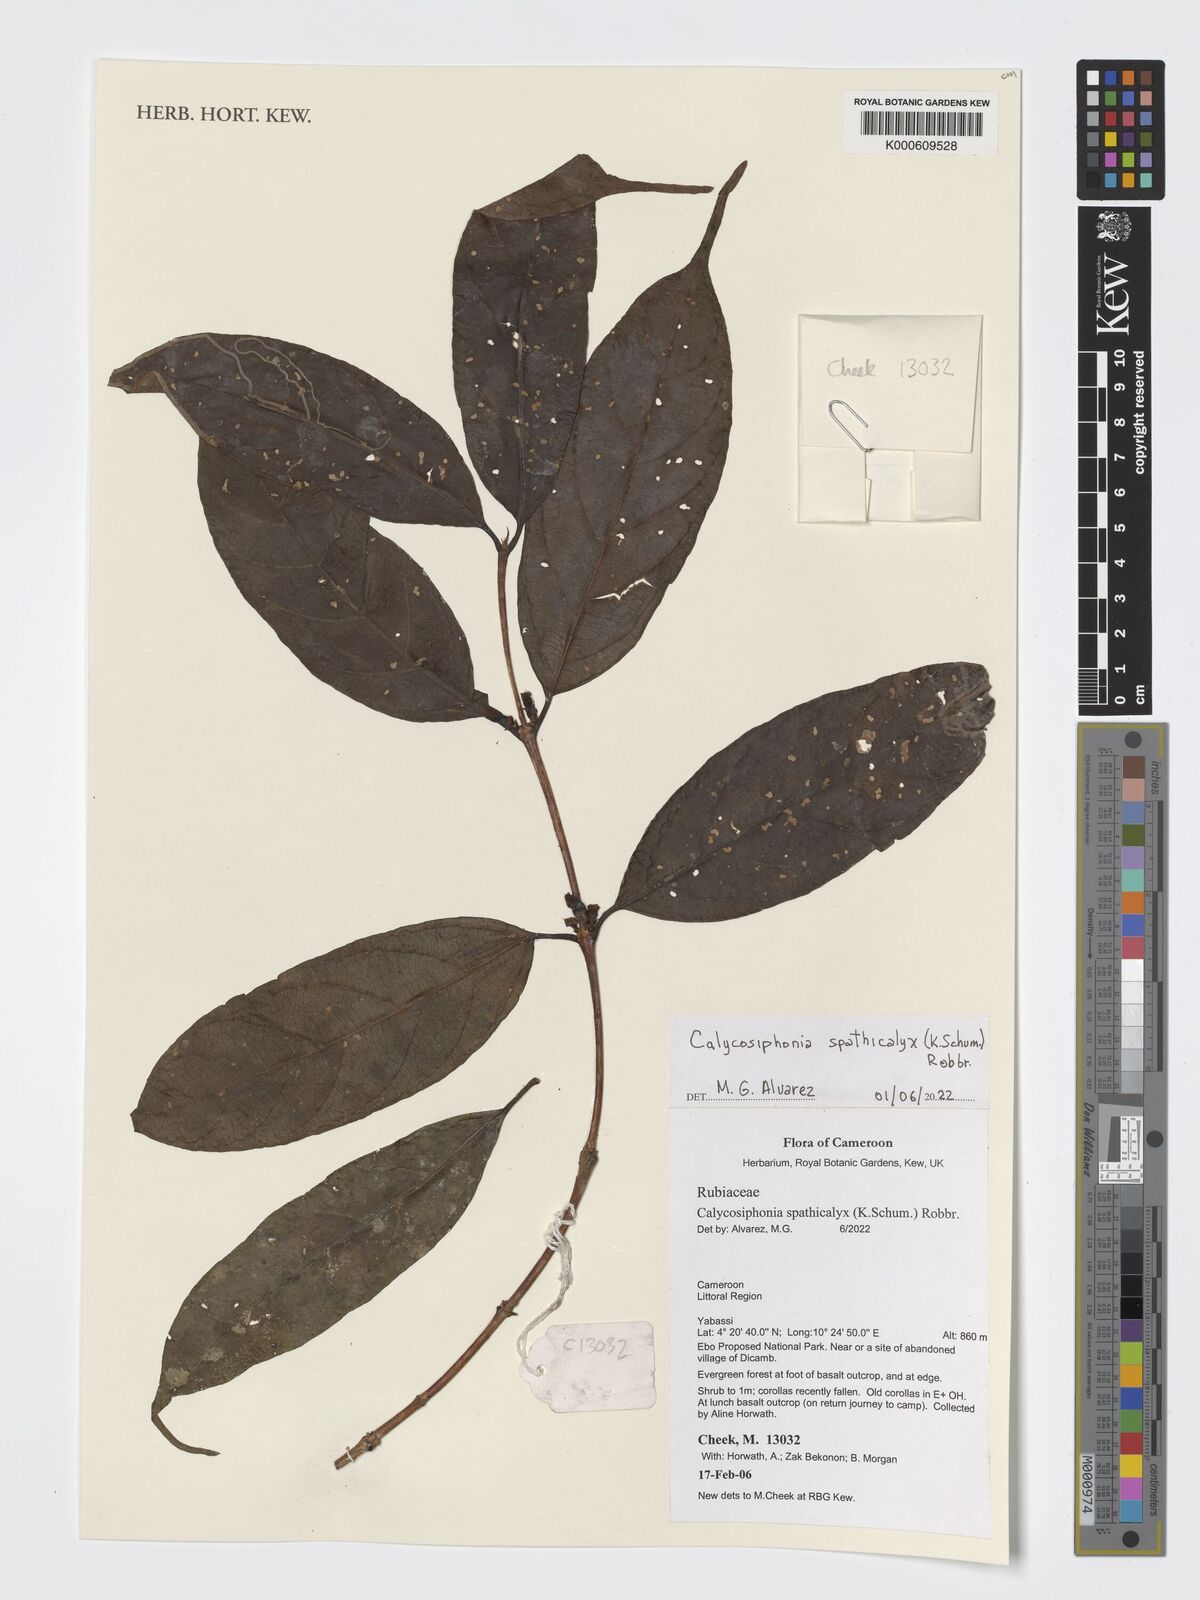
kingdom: Plantae
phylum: Tracheophyta
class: Magnoliopsida
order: Gentianales
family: Rubiaceae
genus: Calycosiphonia
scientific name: Calycosiphonia spathicalyx
